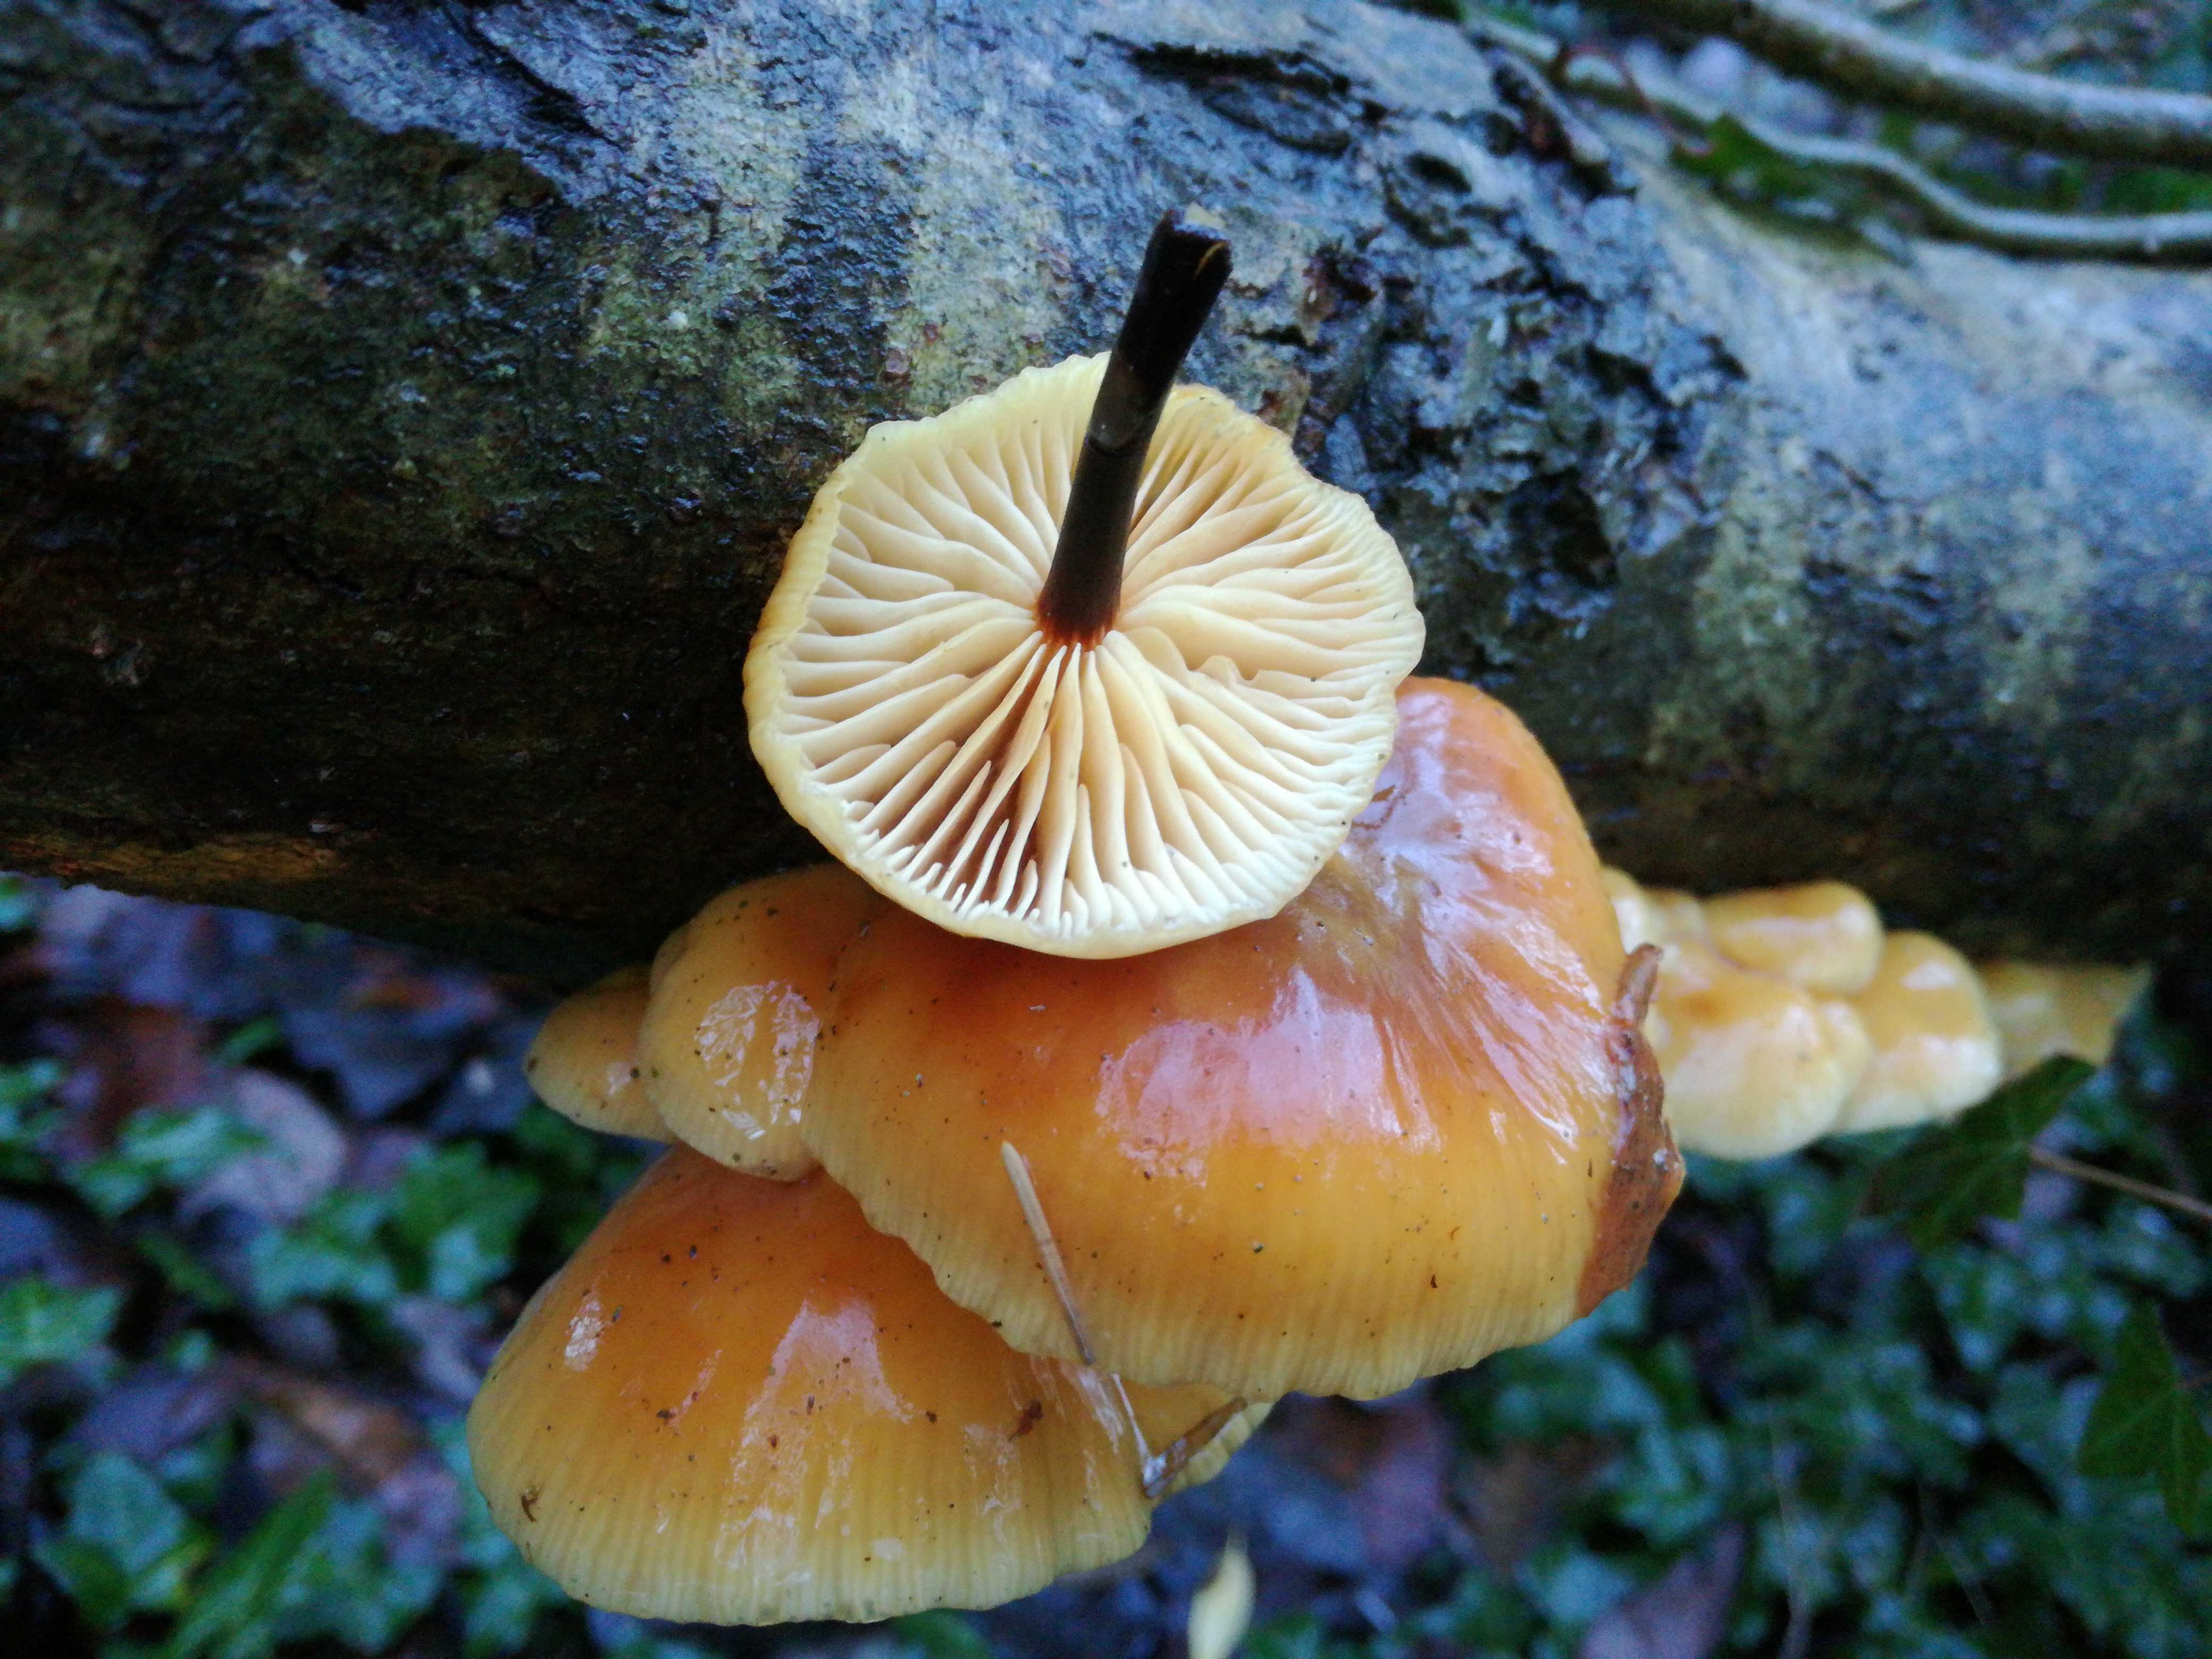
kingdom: Fungi
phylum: Basidiomycota
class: Agaricomycetes
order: Agaricales
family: Physalacriaceae
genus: Flammulina
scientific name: Flammulina
